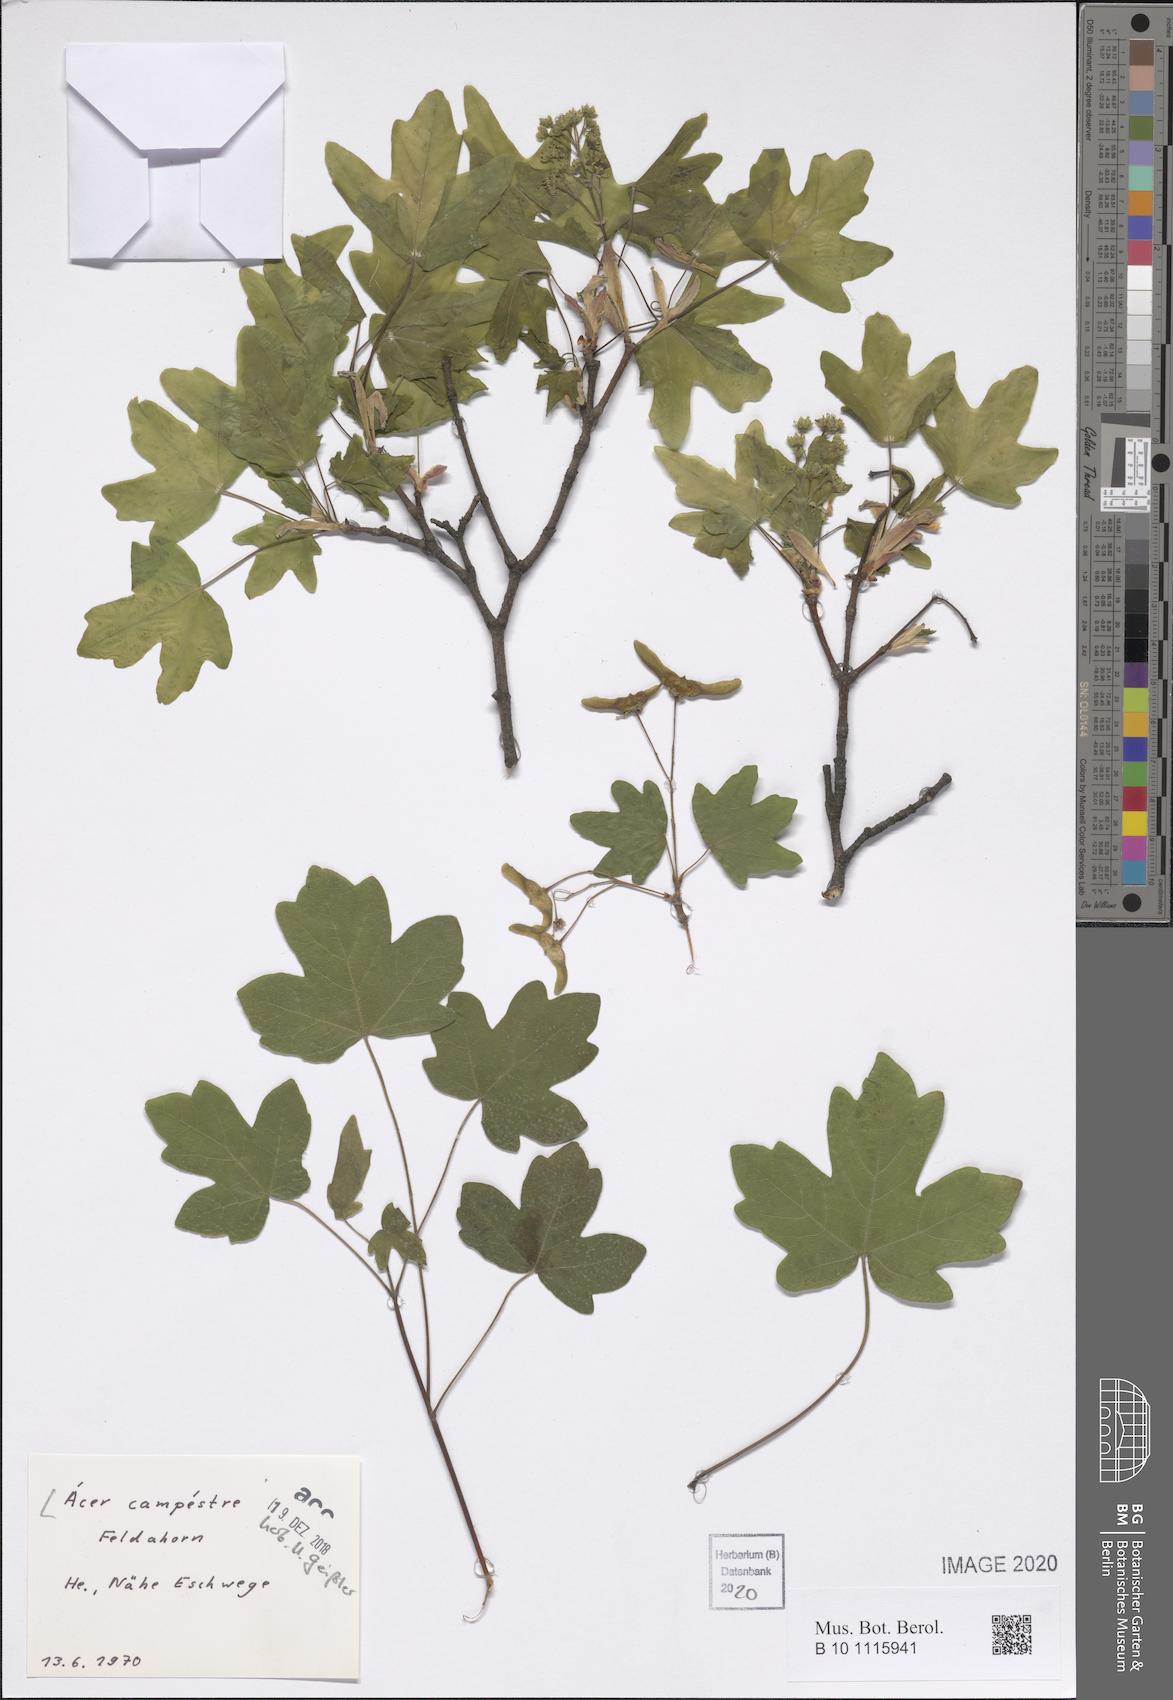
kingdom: Plantae
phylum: Tracheophyta
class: Magnoliopsida
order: Sapindales
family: Sapindaceae
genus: Acer
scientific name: Acer campestre
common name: Field maple
